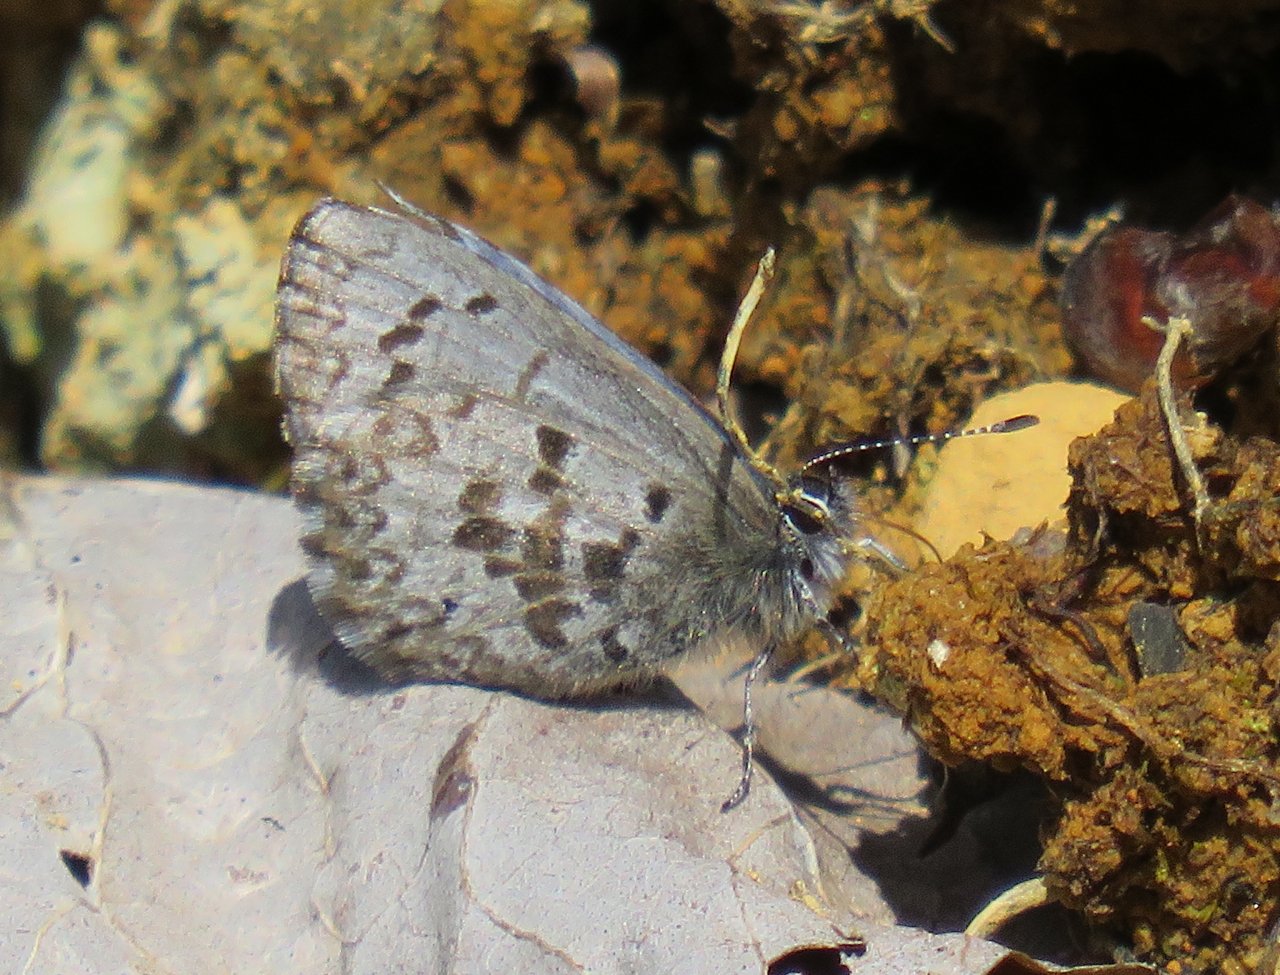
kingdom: Animalia
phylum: Arthropoda
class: Insecta
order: Lepidoptera
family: Lycaenidae
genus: Celastrina
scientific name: Celastrina lucia
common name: Northern Spring Azure
